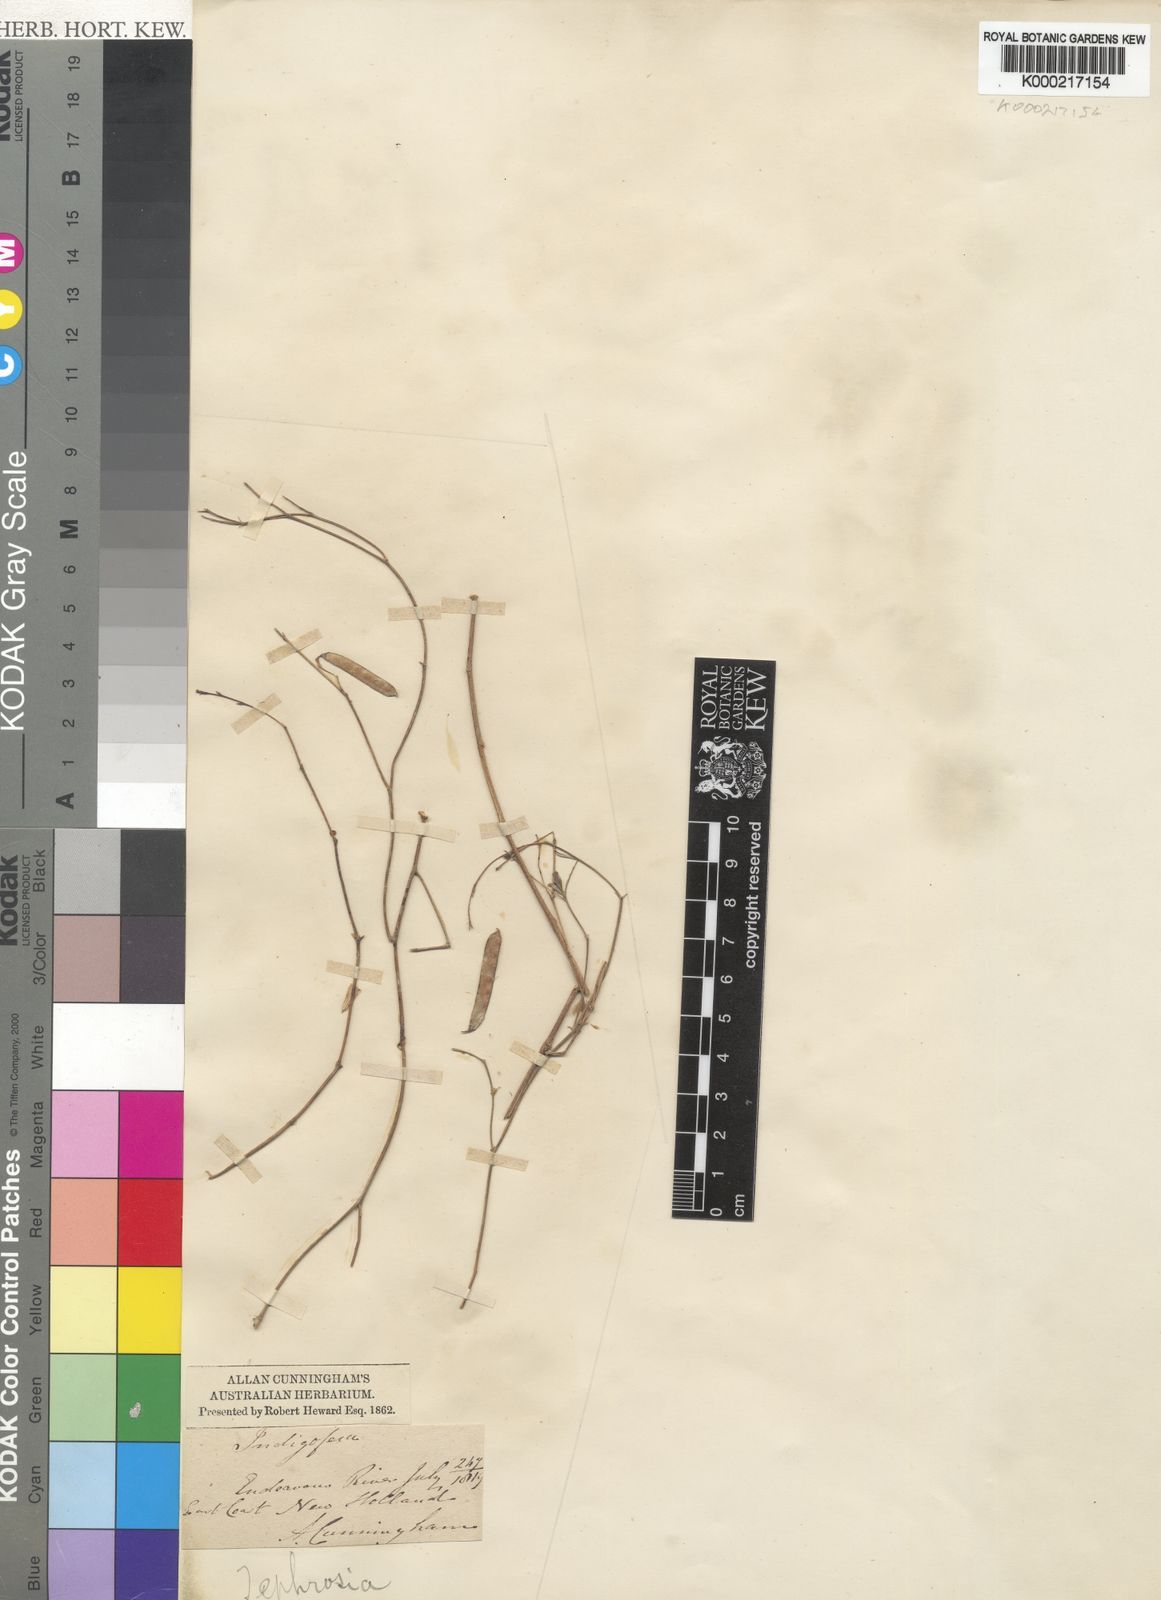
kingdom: Plantae
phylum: Tracheophyta
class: Magnoliopsida
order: Fabales
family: Fabaceae
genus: Tephrosia
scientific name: Tephrosia
